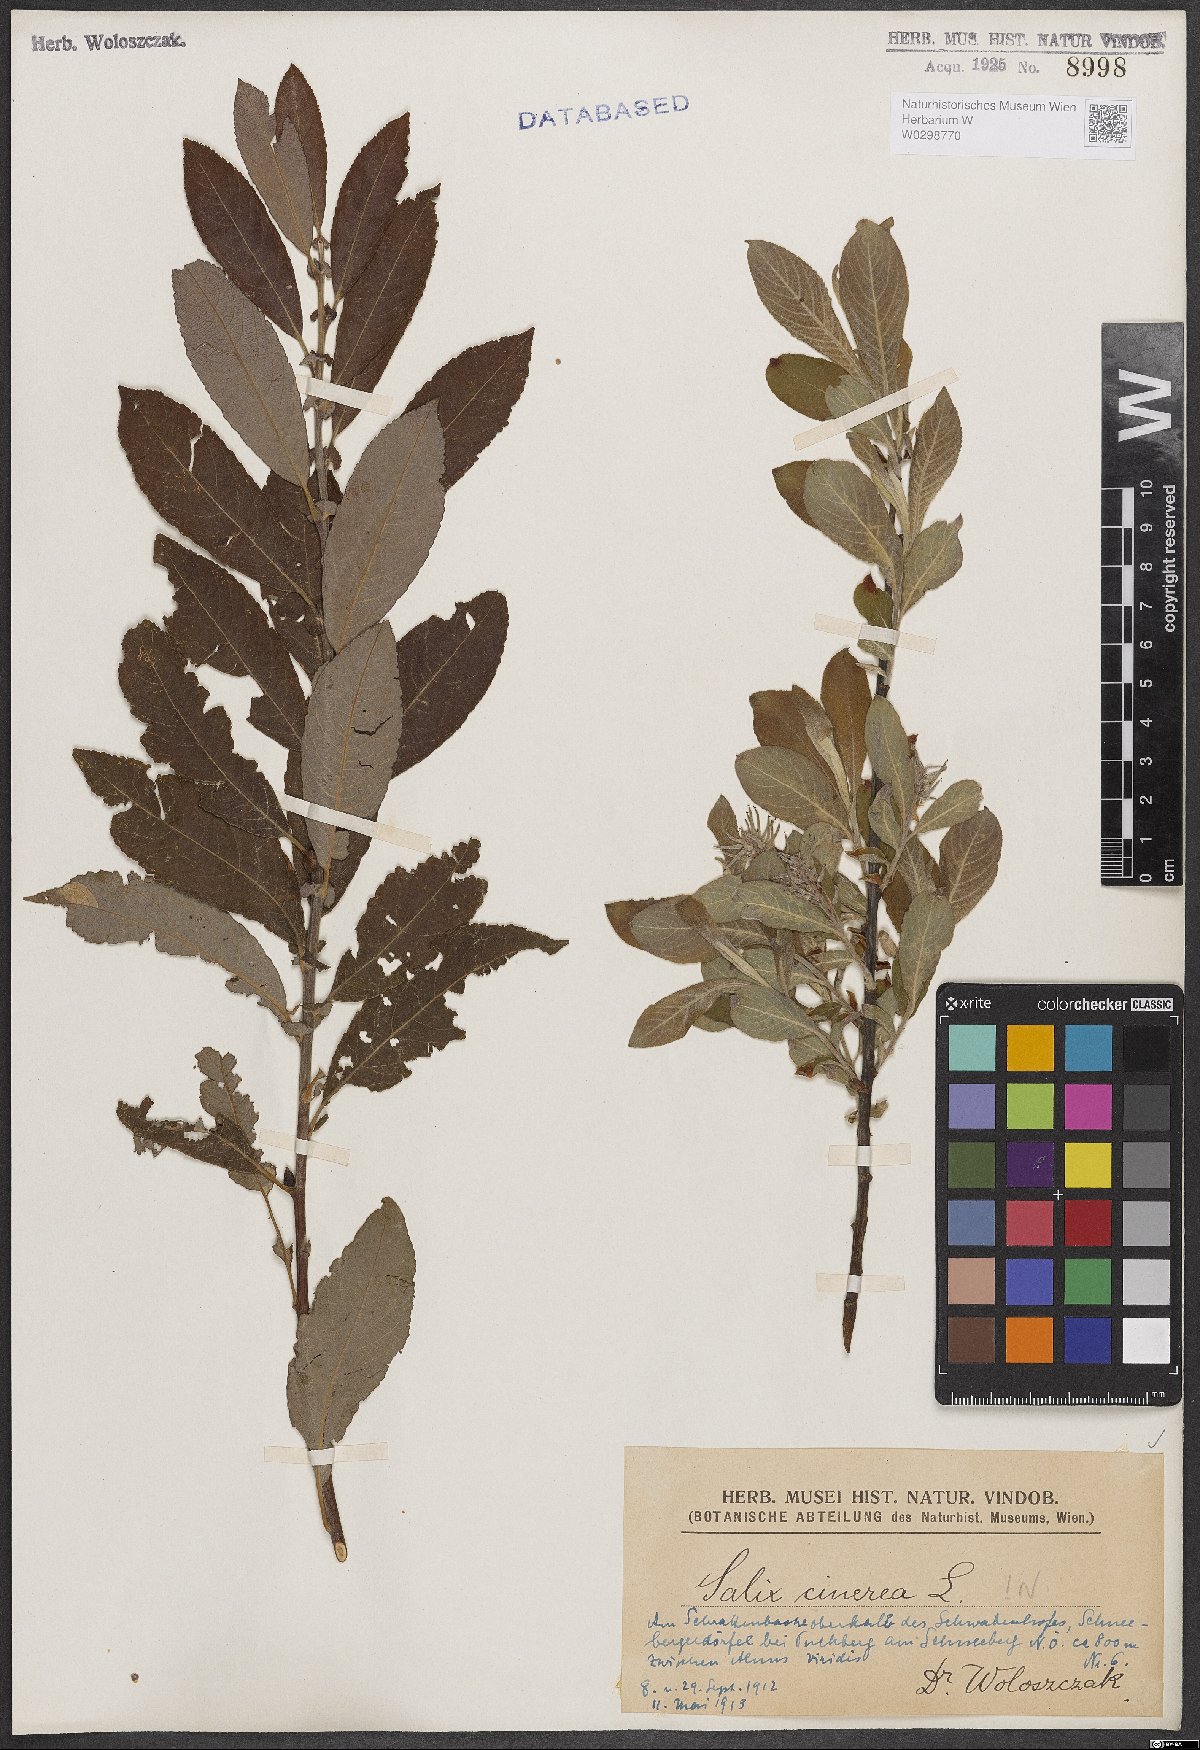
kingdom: Plantae
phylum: Tracheophyta
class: Magnoliopsida
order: Malpighiales
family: Salicaceae
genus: Salix
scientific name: Salix cinerea
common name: Common sallow
